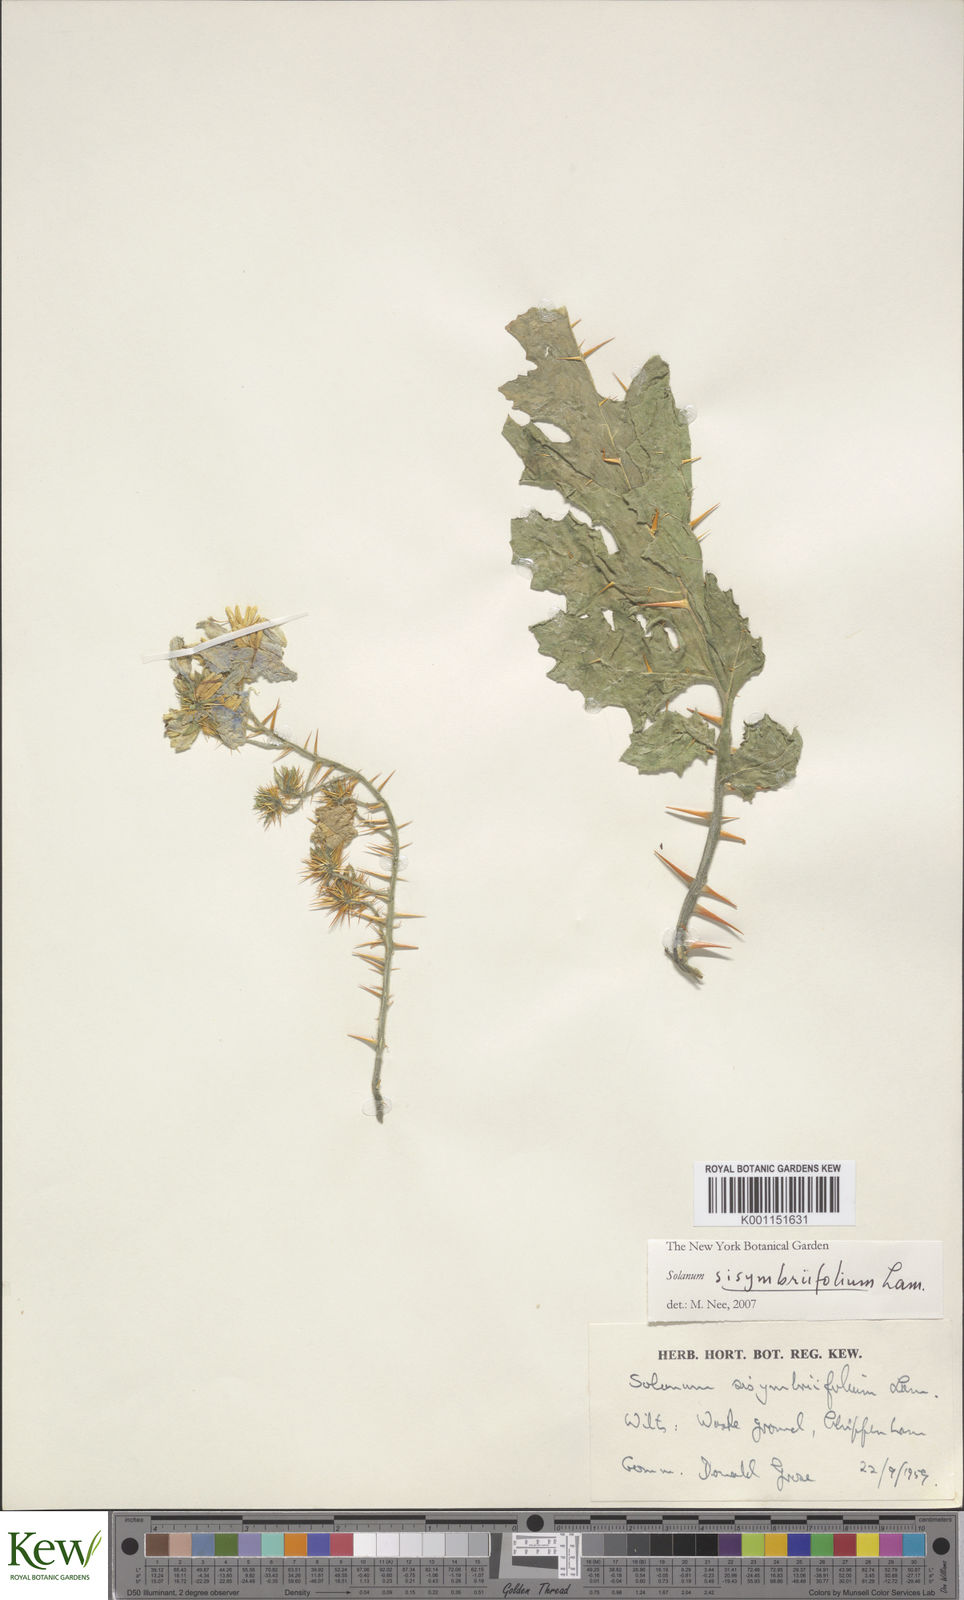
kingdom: Plantae
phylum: Tracheophyta
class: Magnoliopsida
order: Solanales
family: Solanaceae
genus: Solanum
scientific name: Solanum sisymbriifolium
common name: Red buffalo-bur
